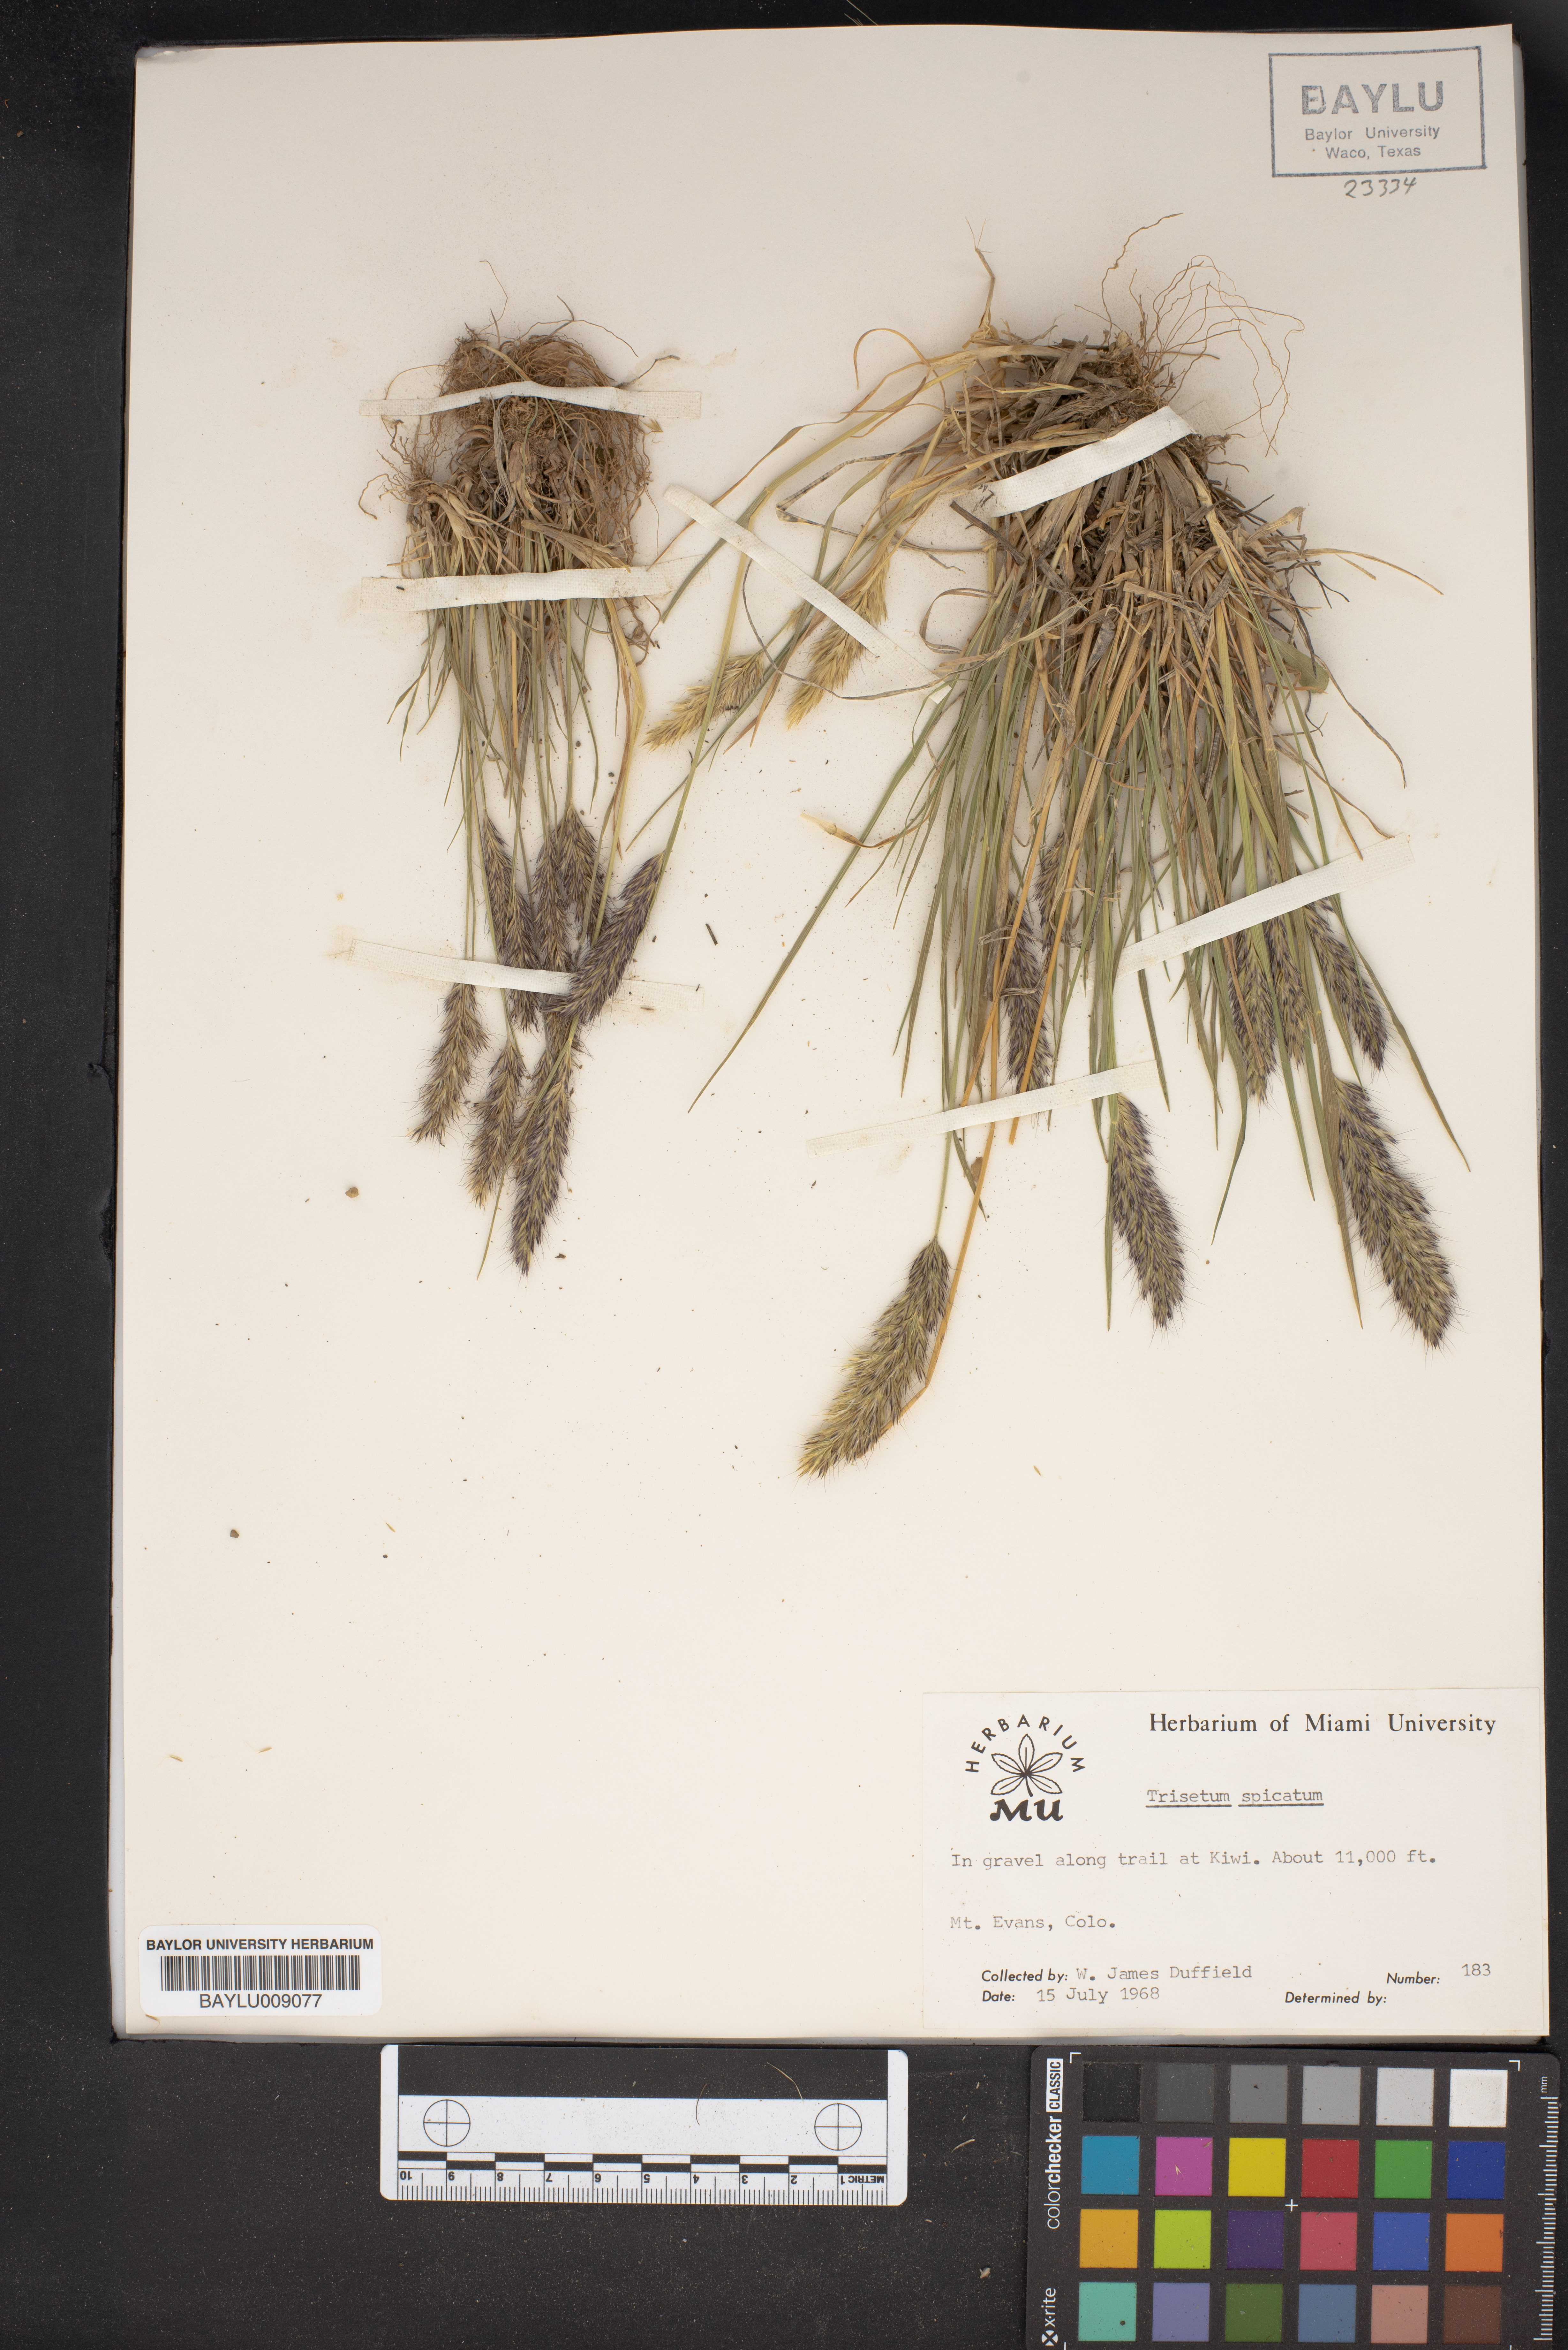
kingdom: Plantae
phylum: Tracheophyta
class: Liliopsida
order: Poales
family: Poaceae
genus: Koeleria
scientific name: Koeleria spicata
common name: Mountain trisetum
